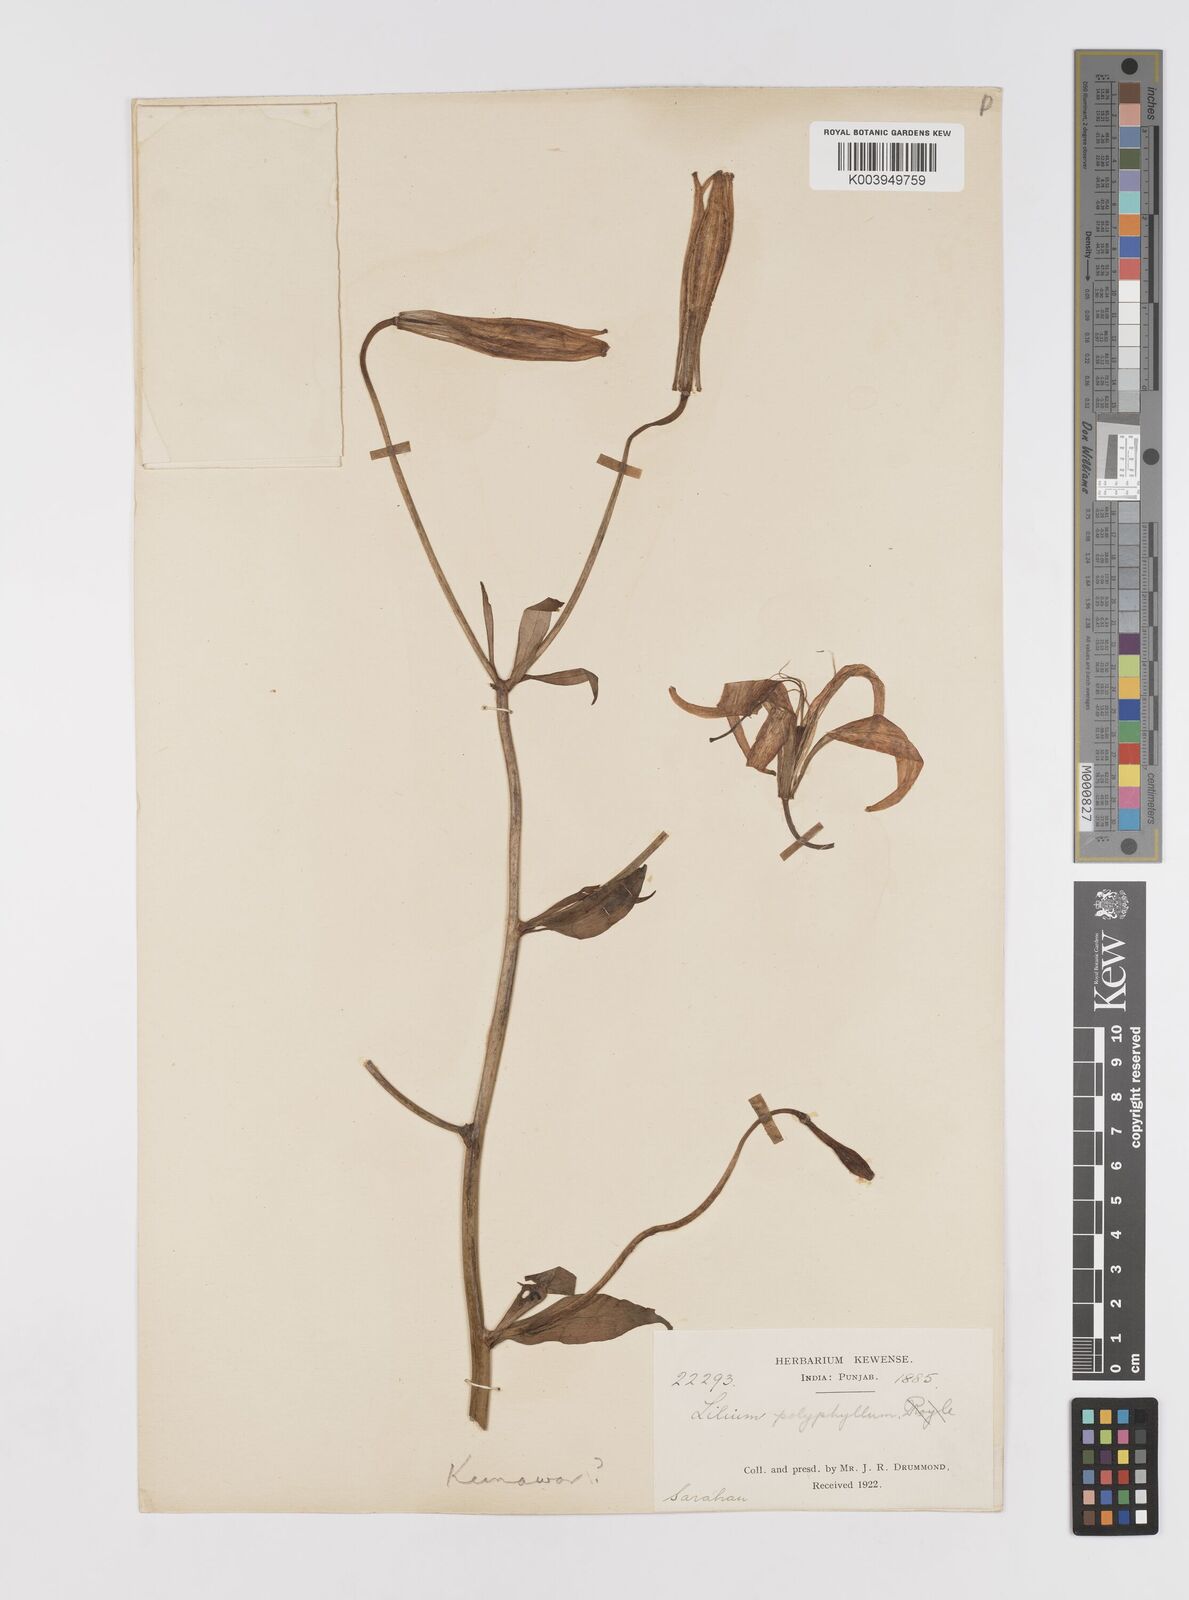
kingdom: Plantae
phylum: Tracheophyta
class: Liliopsida
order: Liliales
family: Liliaceae
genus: Lilium
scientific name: Lilium polyphyllum
